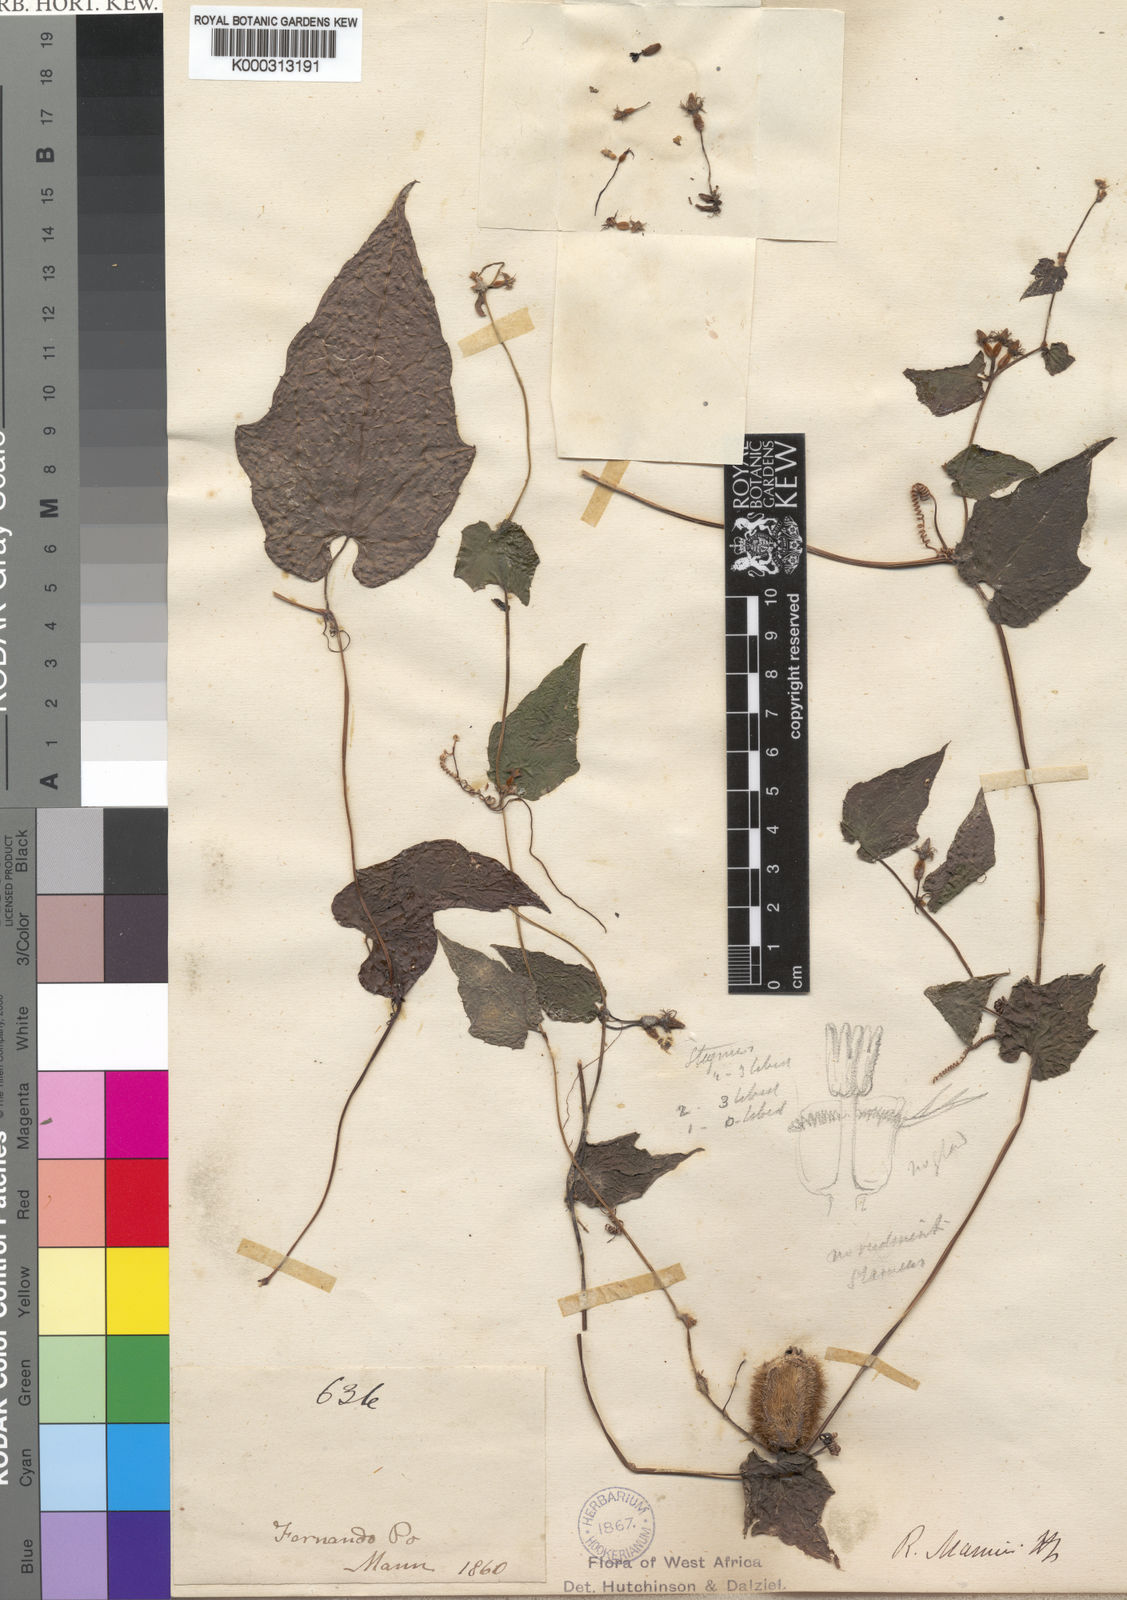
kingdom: Plantae
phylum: Tracheophyta
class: Magnoliopsida
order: Cucurbitales
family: Cucurbitaceae
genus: Raphidiocystis
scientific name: Raphidiocystis mannii
